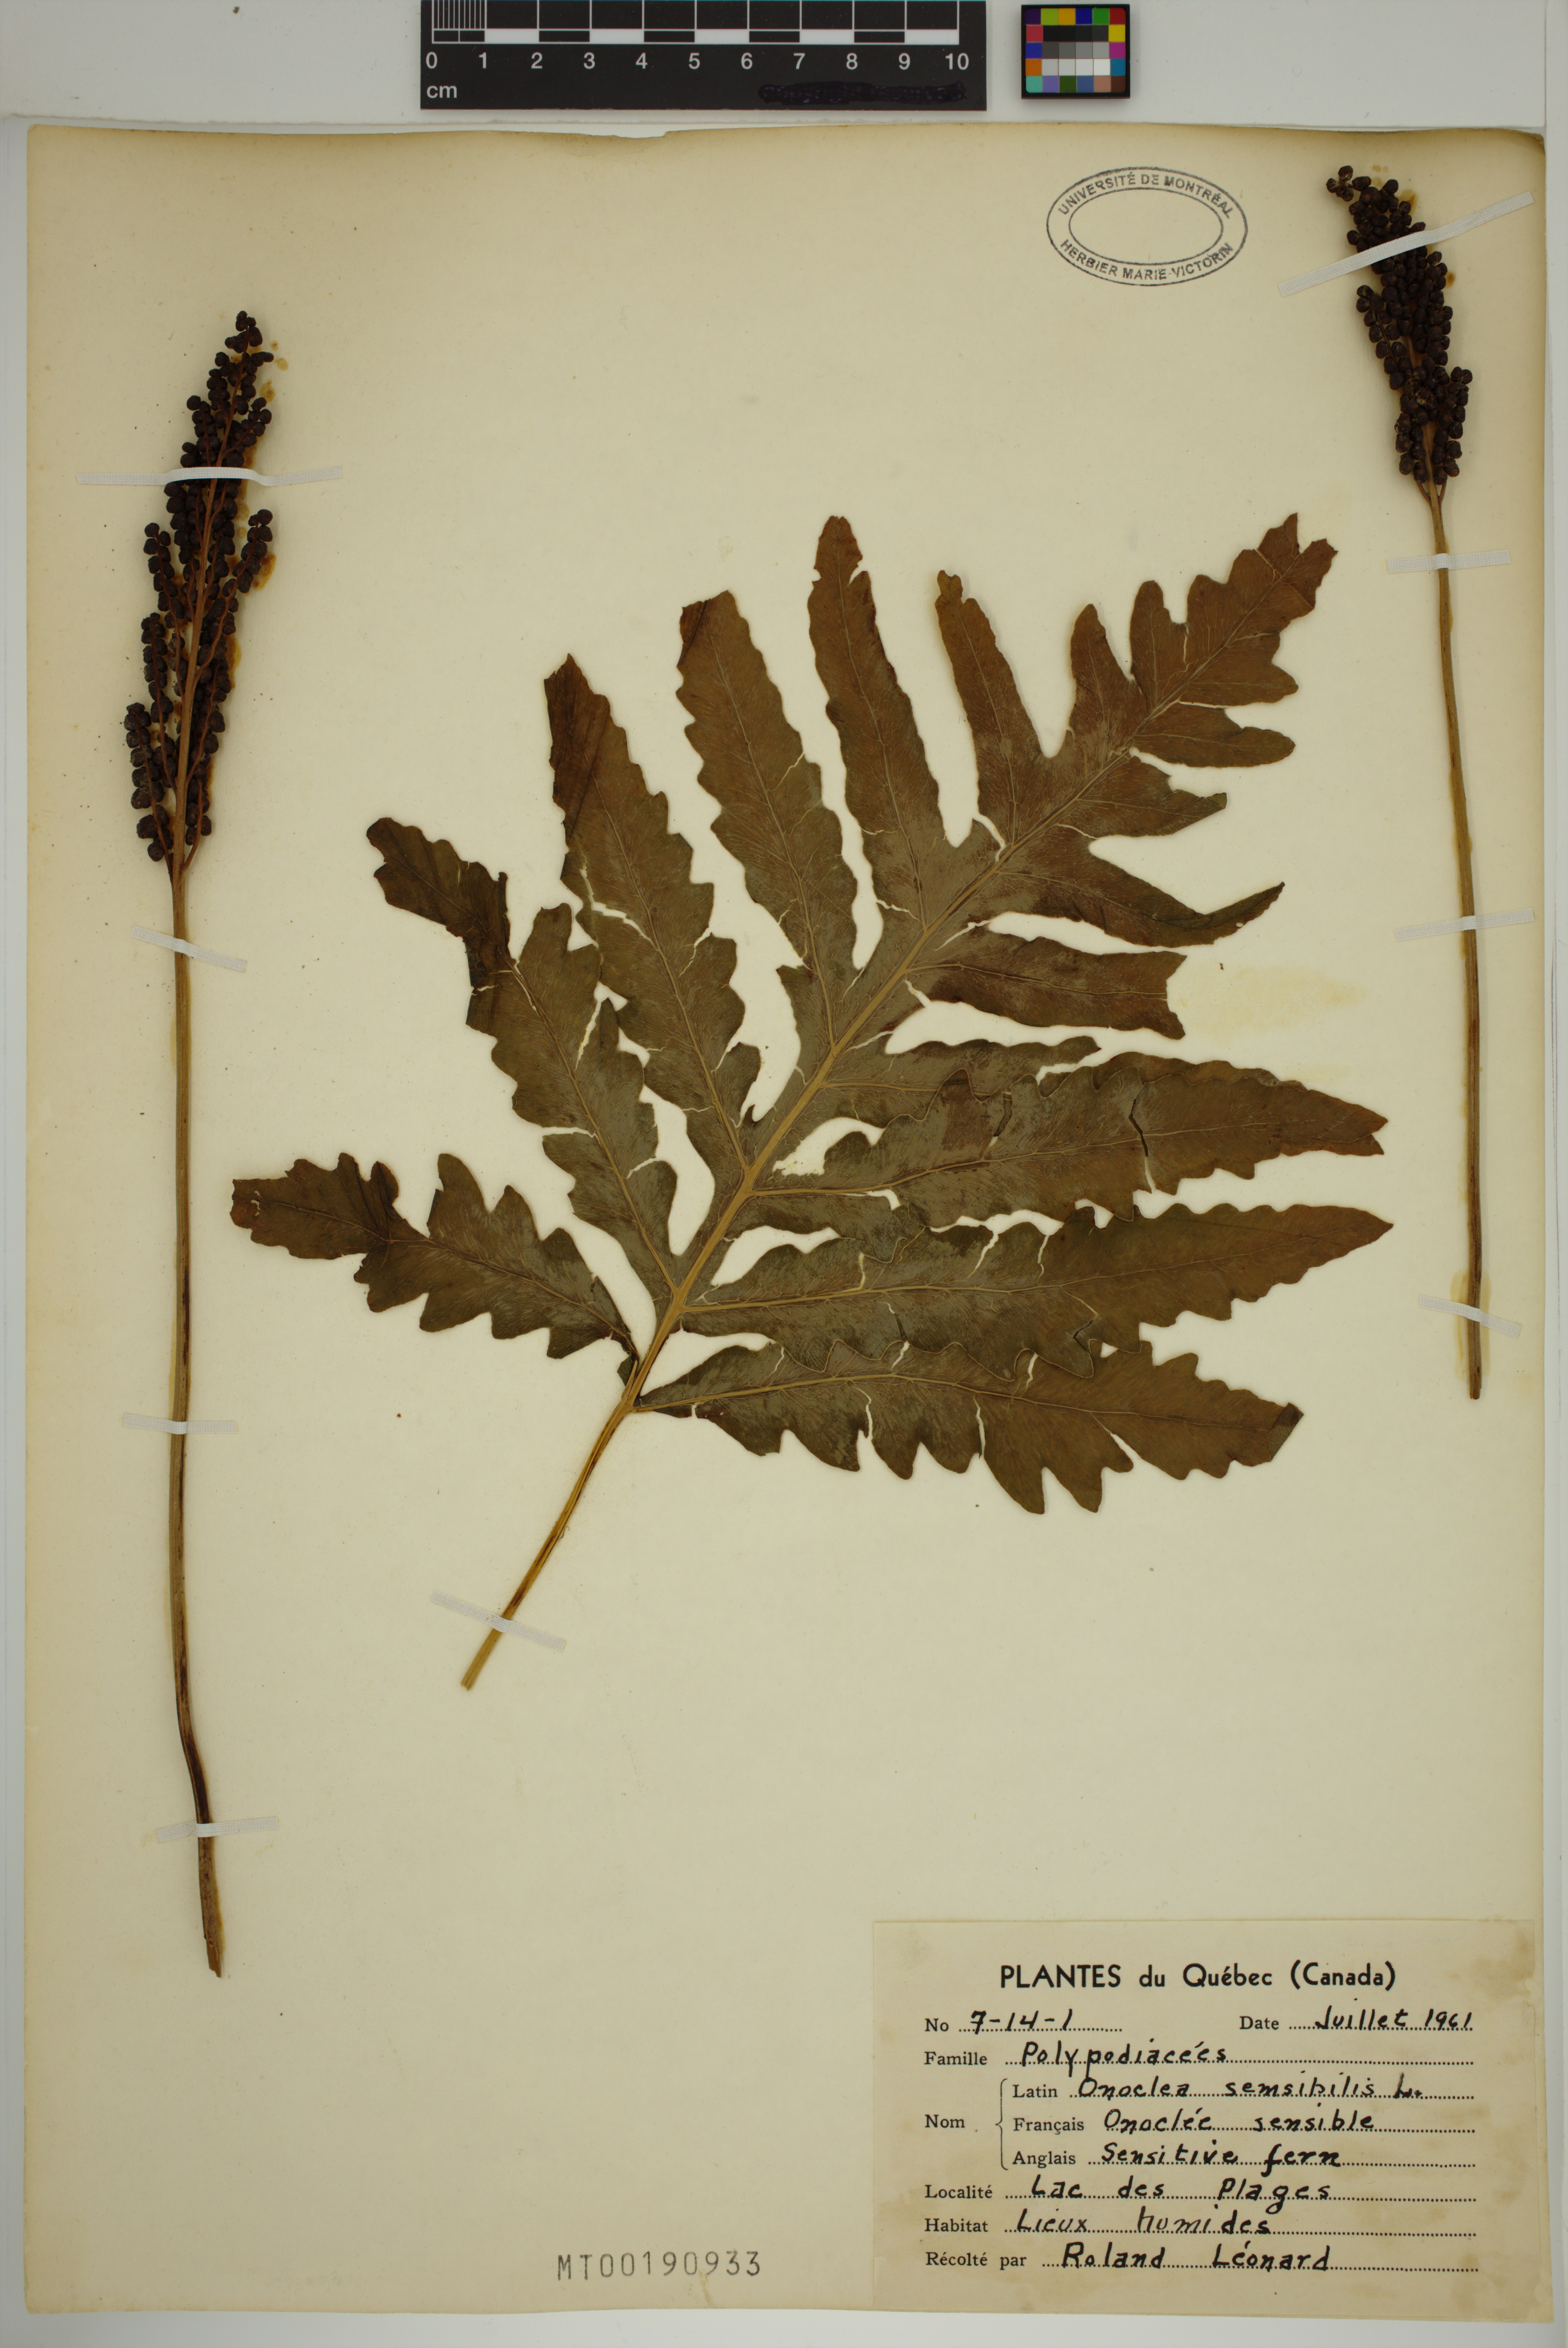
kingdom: Plantae
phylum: Tracheophyta
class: Polypodiopsida
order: Polypodiales
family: Onocleaceae
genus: Onoclea
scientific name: Onoclea sensibilis
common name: Sensitive fern
